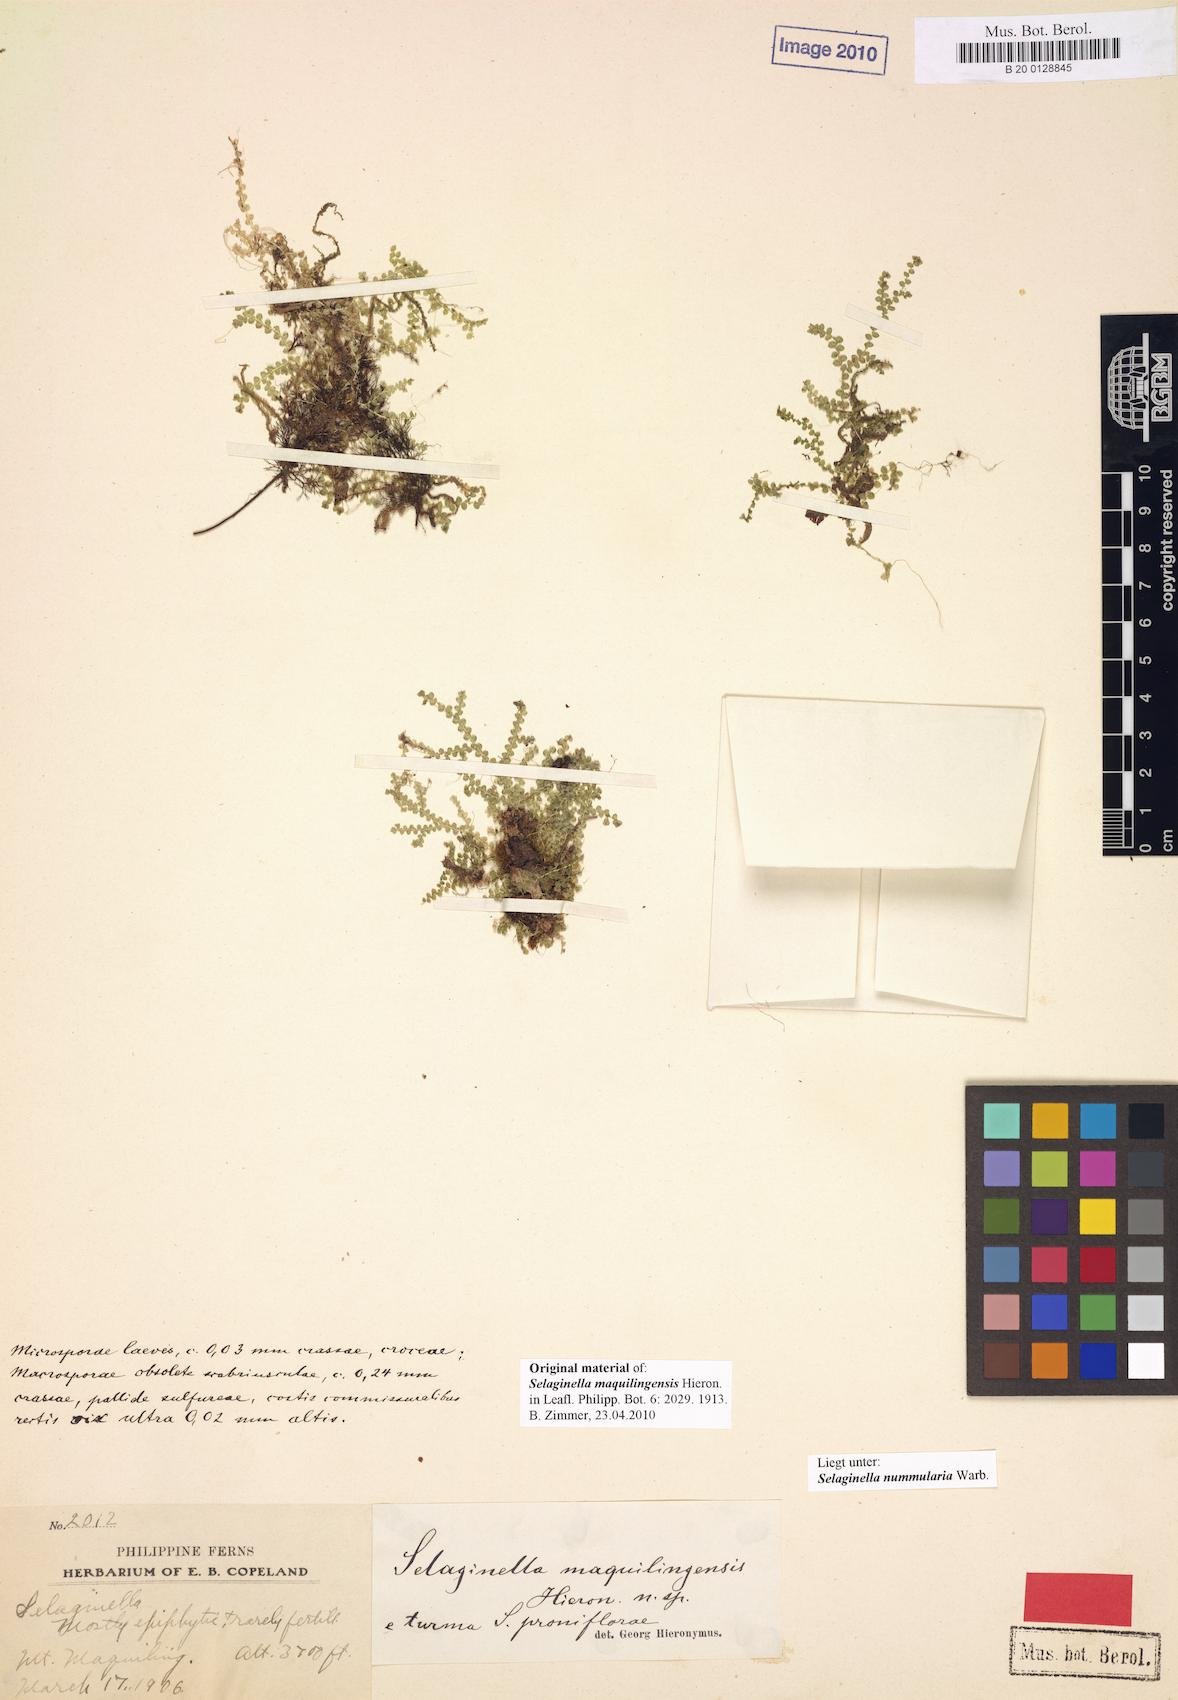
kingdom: Plantae
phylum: Tracheophyta
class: Lycopodiopsida
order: Selaginellales
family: Selaginellaceae
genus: Selaginella
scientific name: Selaginella nummularia
